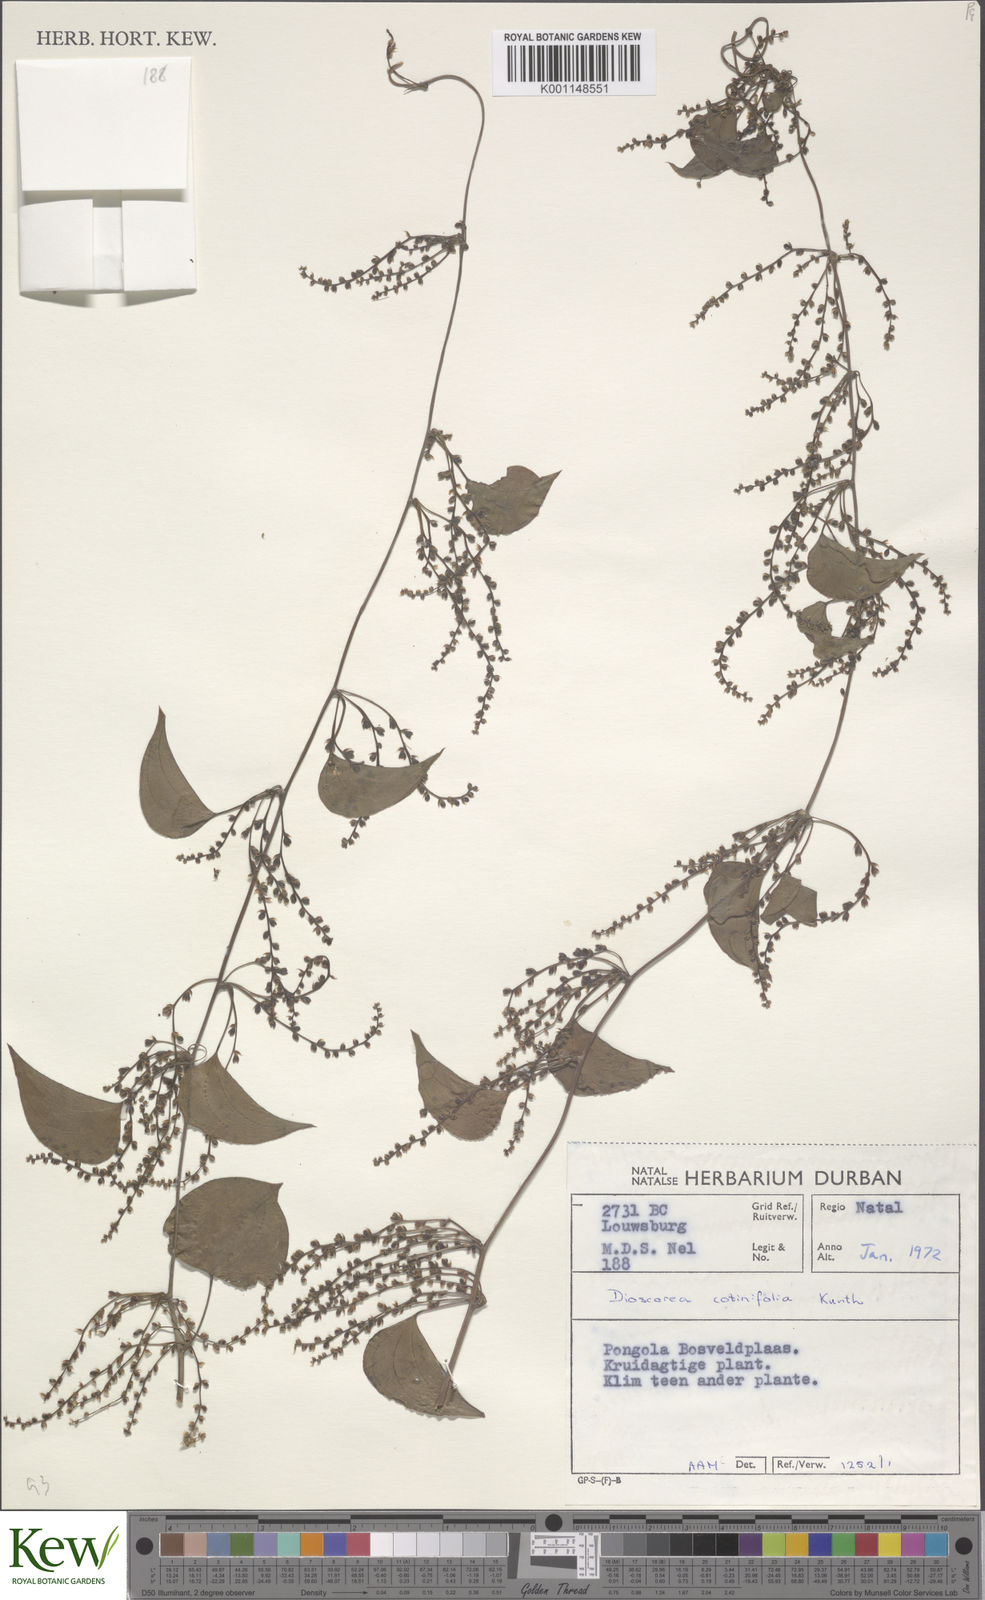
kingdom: Plantae
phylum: Tracheophyta
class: Liliopsida
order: Dioscoreales
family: Dioscoreaceae
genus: Dioscorea
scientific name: Dioscorea cotinifolia
